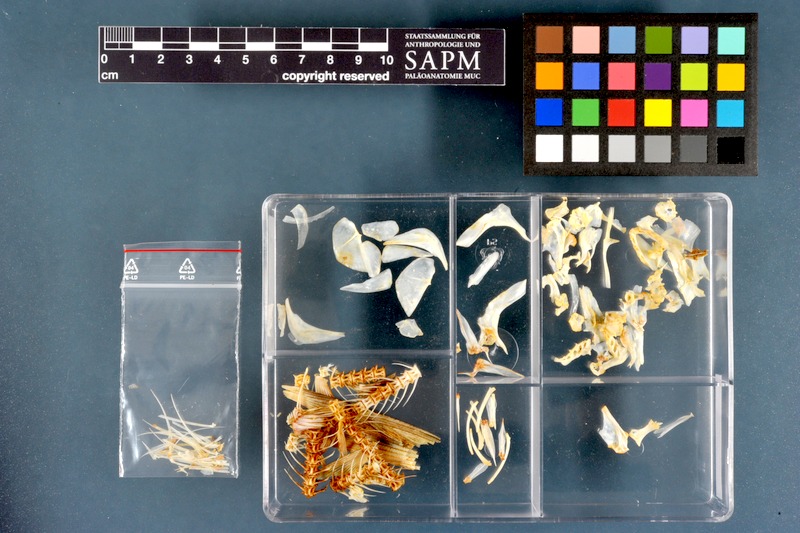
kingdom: Animalia
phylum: Chordata
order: Characiformes
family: Alestidae
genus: Hydrocynus
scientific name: Hydrocynus forskahlii
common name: Elongate tigerfish
